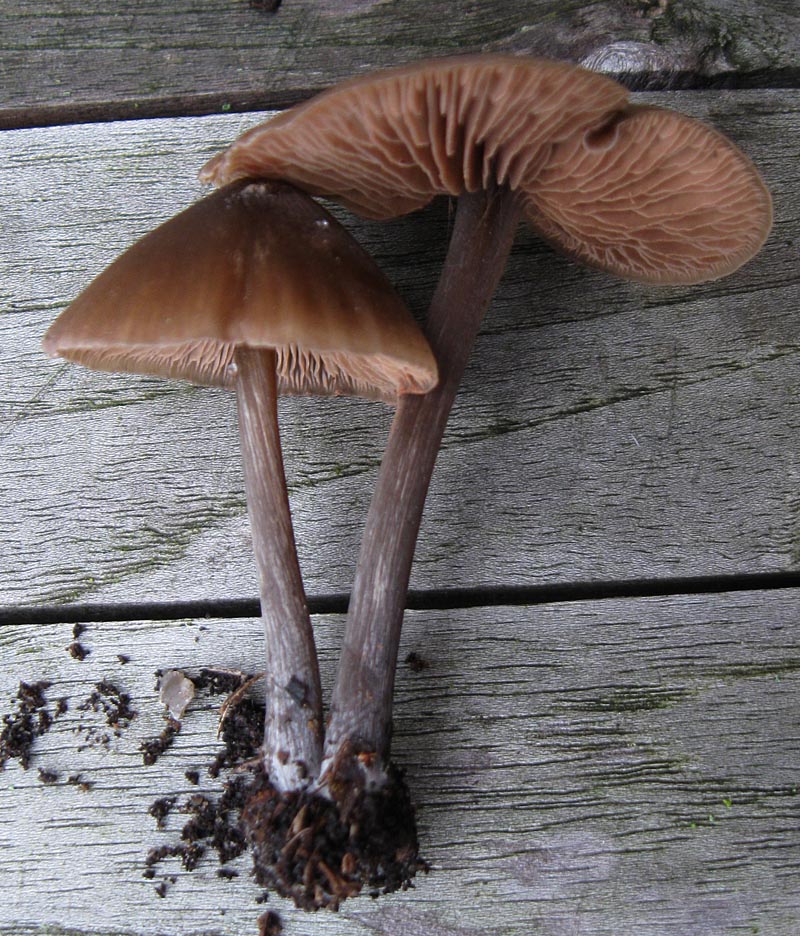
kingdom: Fungi
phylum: Basidiomycota
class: Agaricomycetes
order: Agaricales
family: Entolomataceae
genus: Entoloma
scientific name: Entoloma hebes
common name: krat-rødblad
